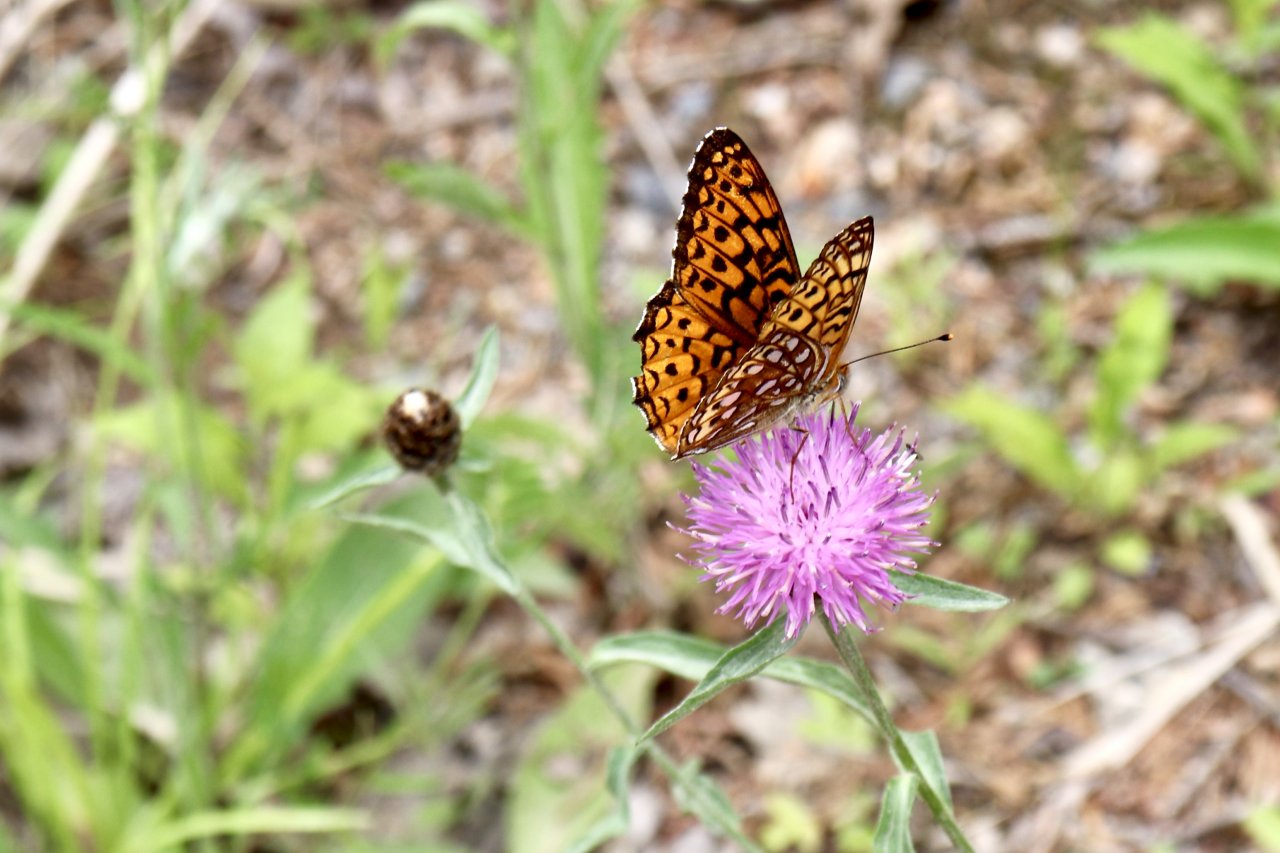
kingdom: Animalia
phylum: Arthropoda
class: Insecta
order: Lepidoptera
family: Nymphalidae
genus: Speyeria
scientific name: Speyeria cybele
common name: Great Spangled Fritillary
